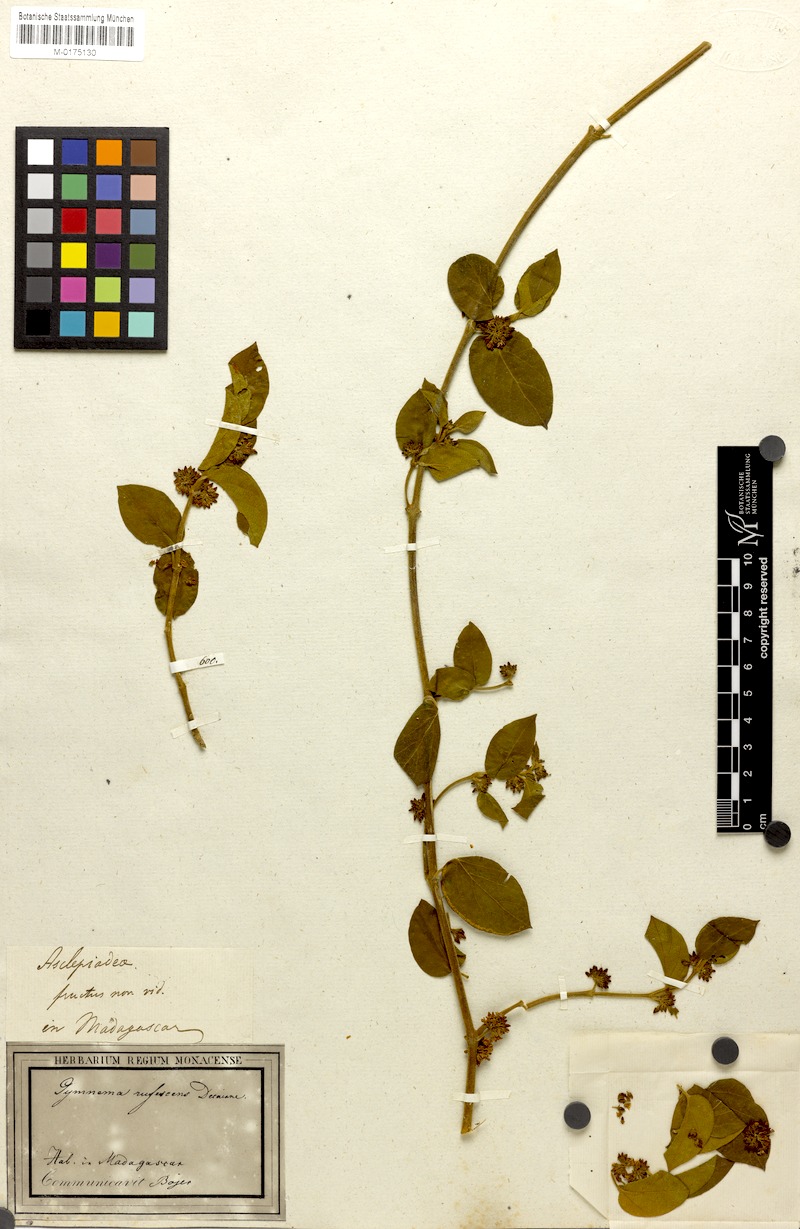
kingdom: Plantae
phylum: Tracheophyta
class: Magnoliopsida
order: Gentianales
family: Apocynaceae
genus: Gymnema
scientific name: Gymnema sylvestre
